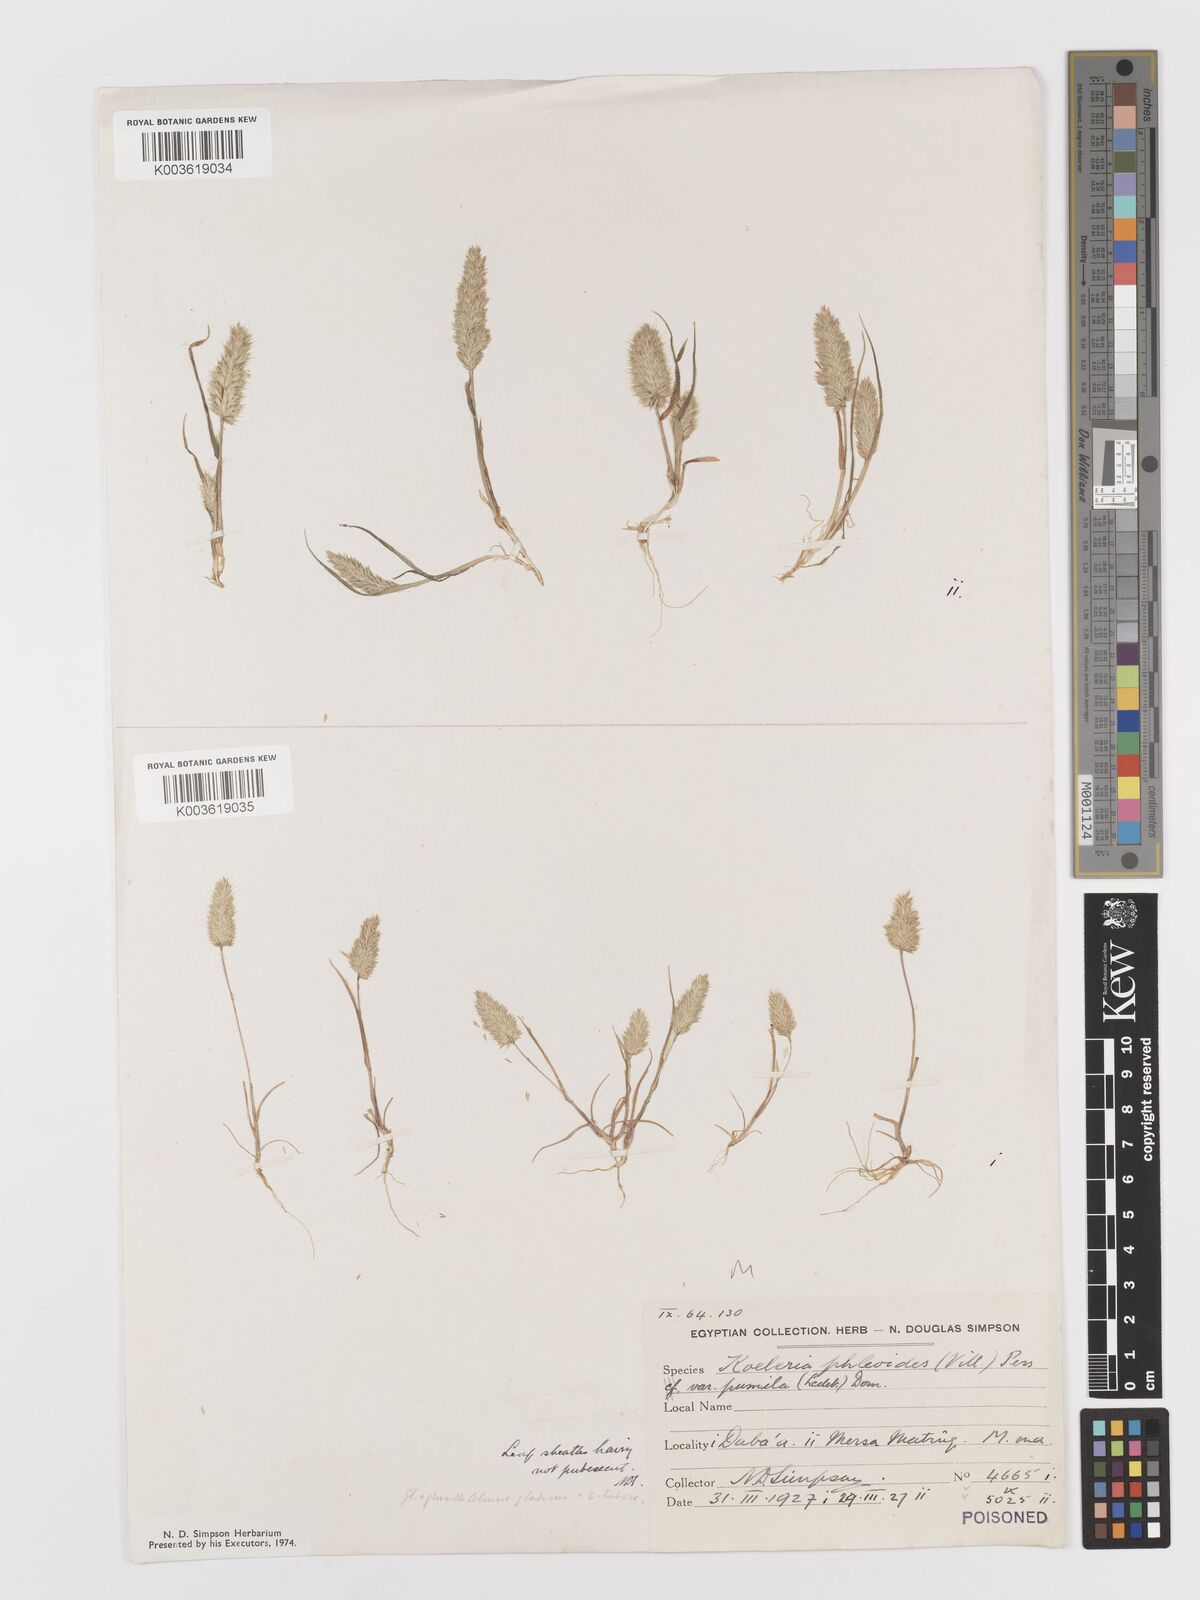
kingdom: Plantae
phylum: Tracheophyta
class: Liliopsida
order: Poales
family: Poaceae
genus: Rostraria
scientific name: Rostraria cristata
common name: Mediterranean hair-grass
